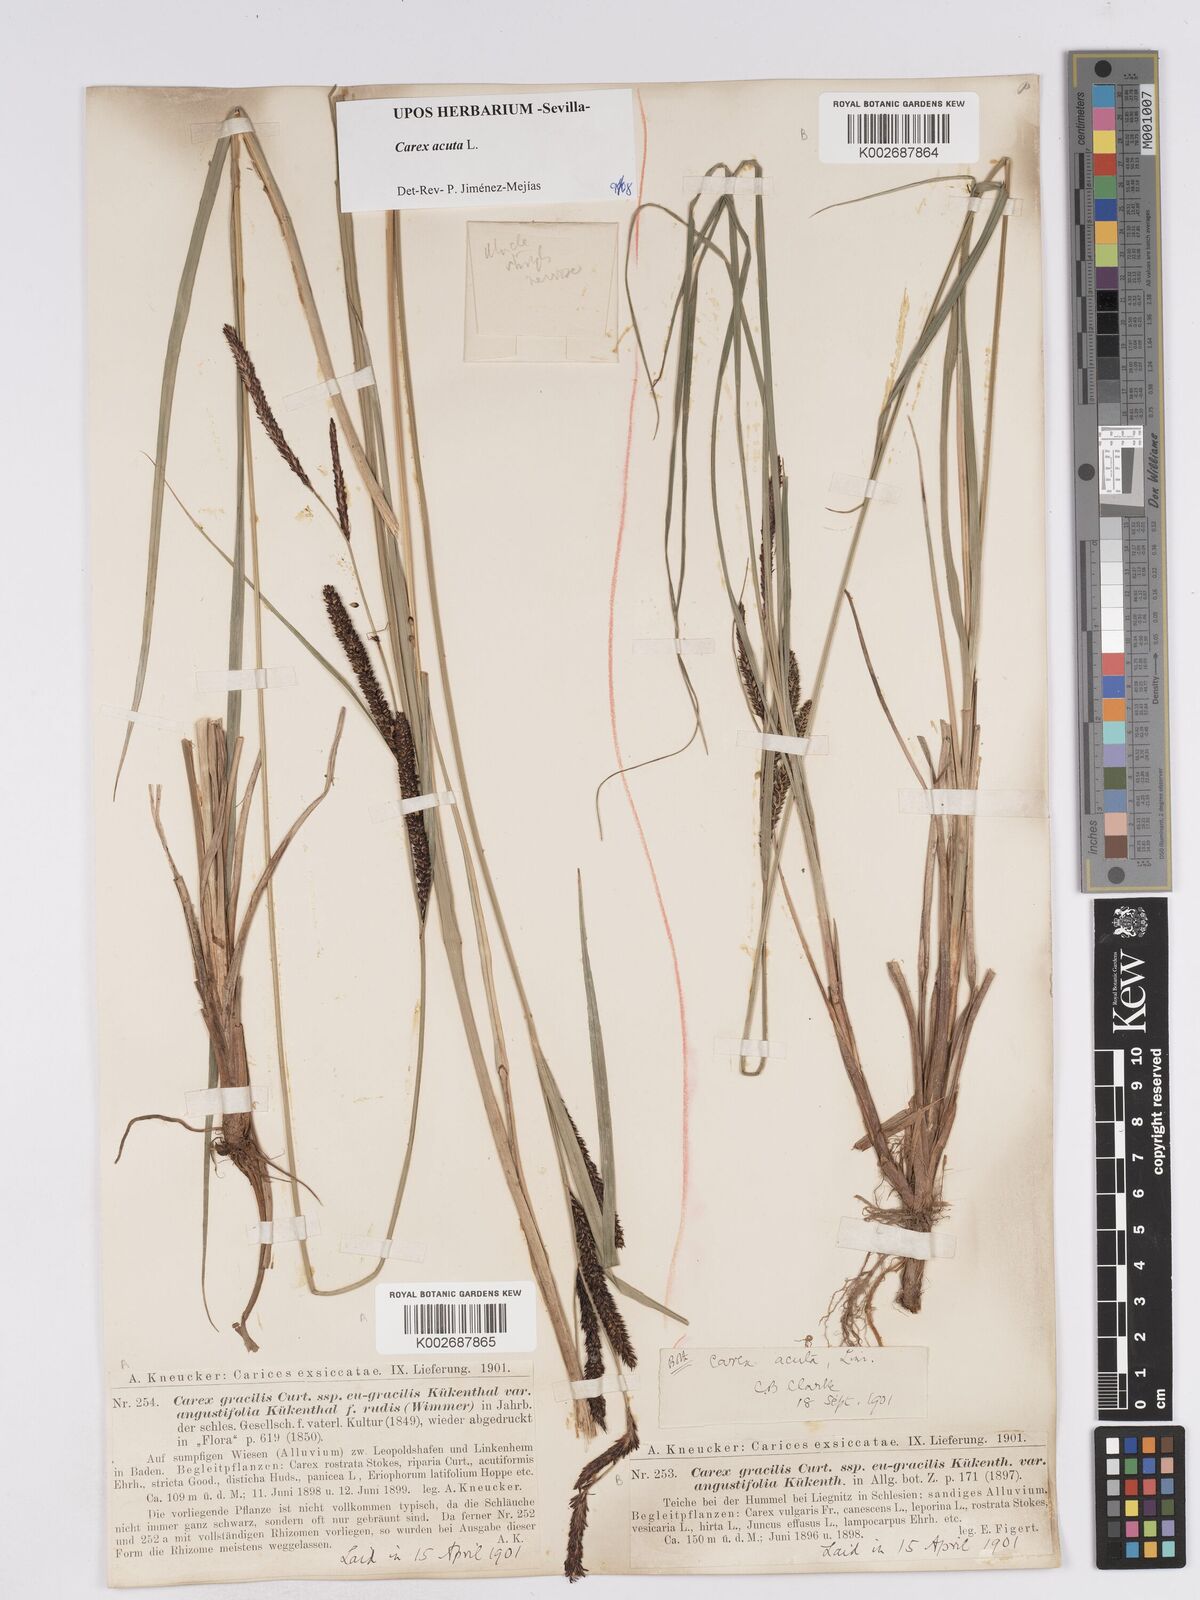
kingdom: Plantae
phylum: Tracheophyta
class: Liliopsida
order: Poales
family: Cyperaceae
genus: Carex
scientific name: Carex acuta
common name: Slender tufted-sedge
